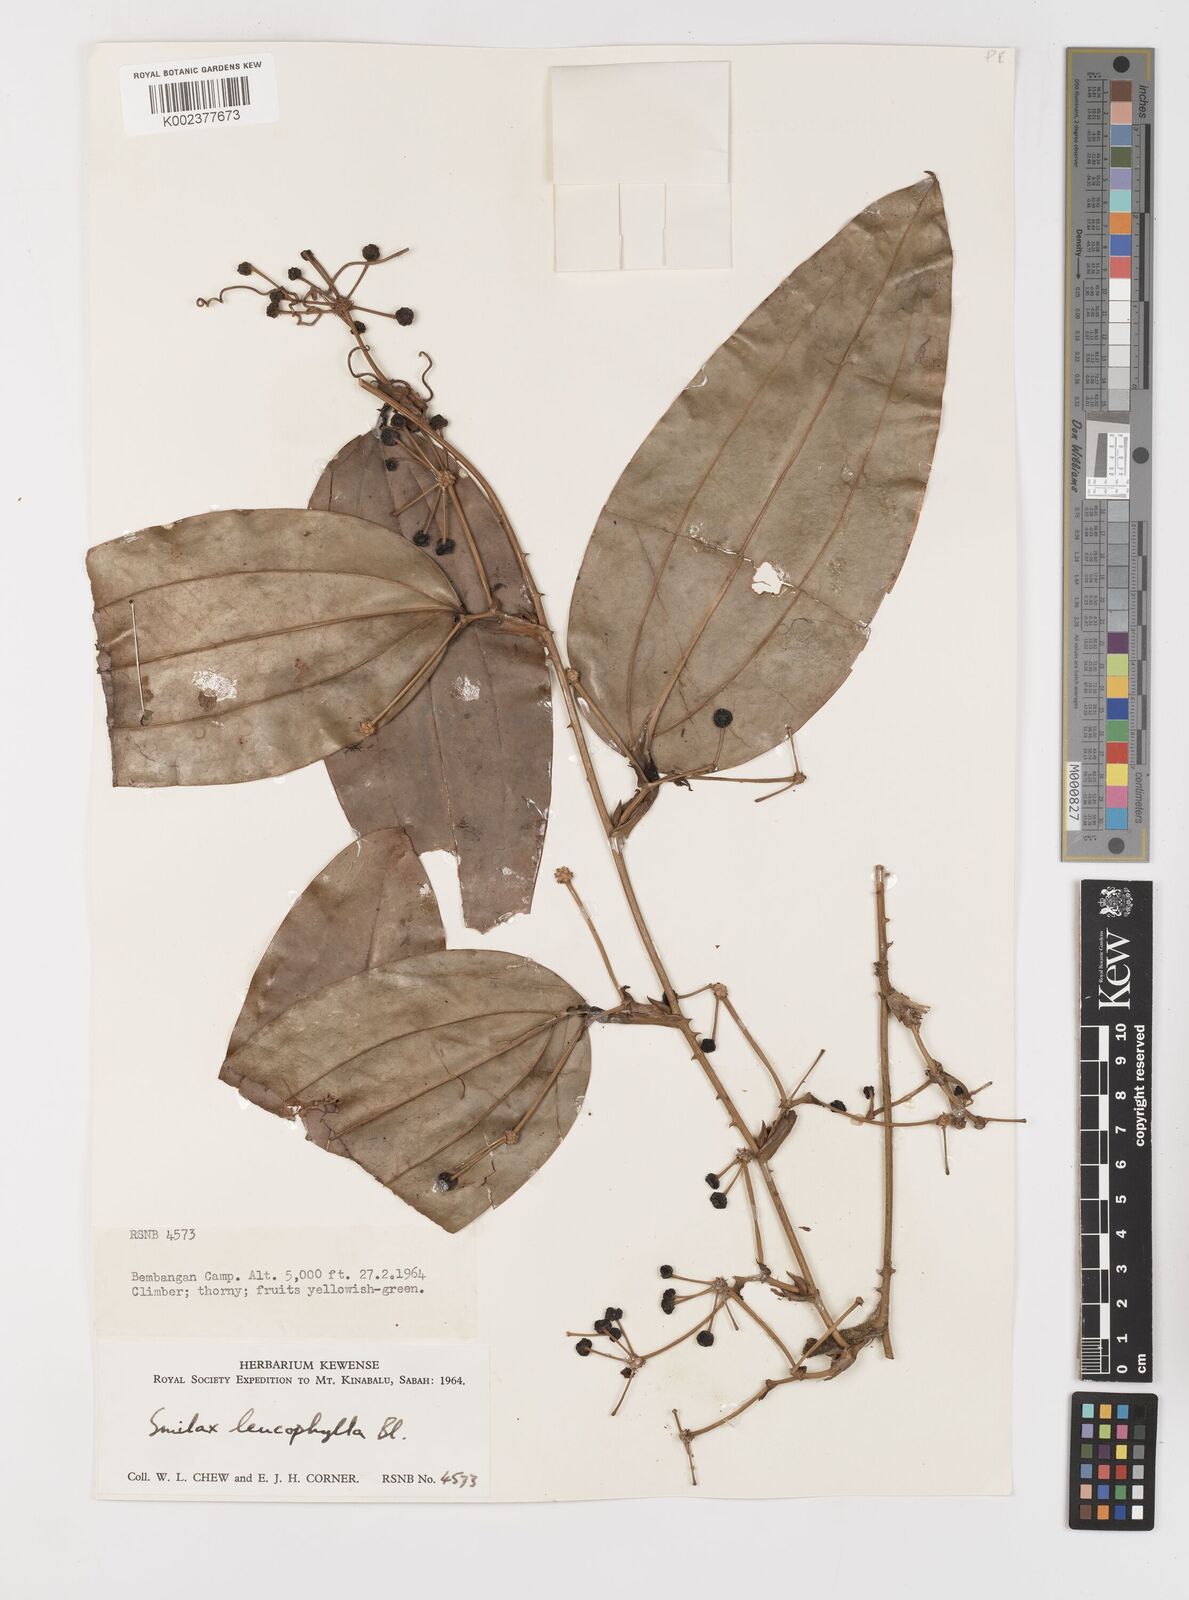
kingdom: Plantae
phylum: Tracheophyta
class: Liliopsida
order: Liliales
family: Smilacaceae
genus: Smilax
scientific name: Smilax leucophylla
